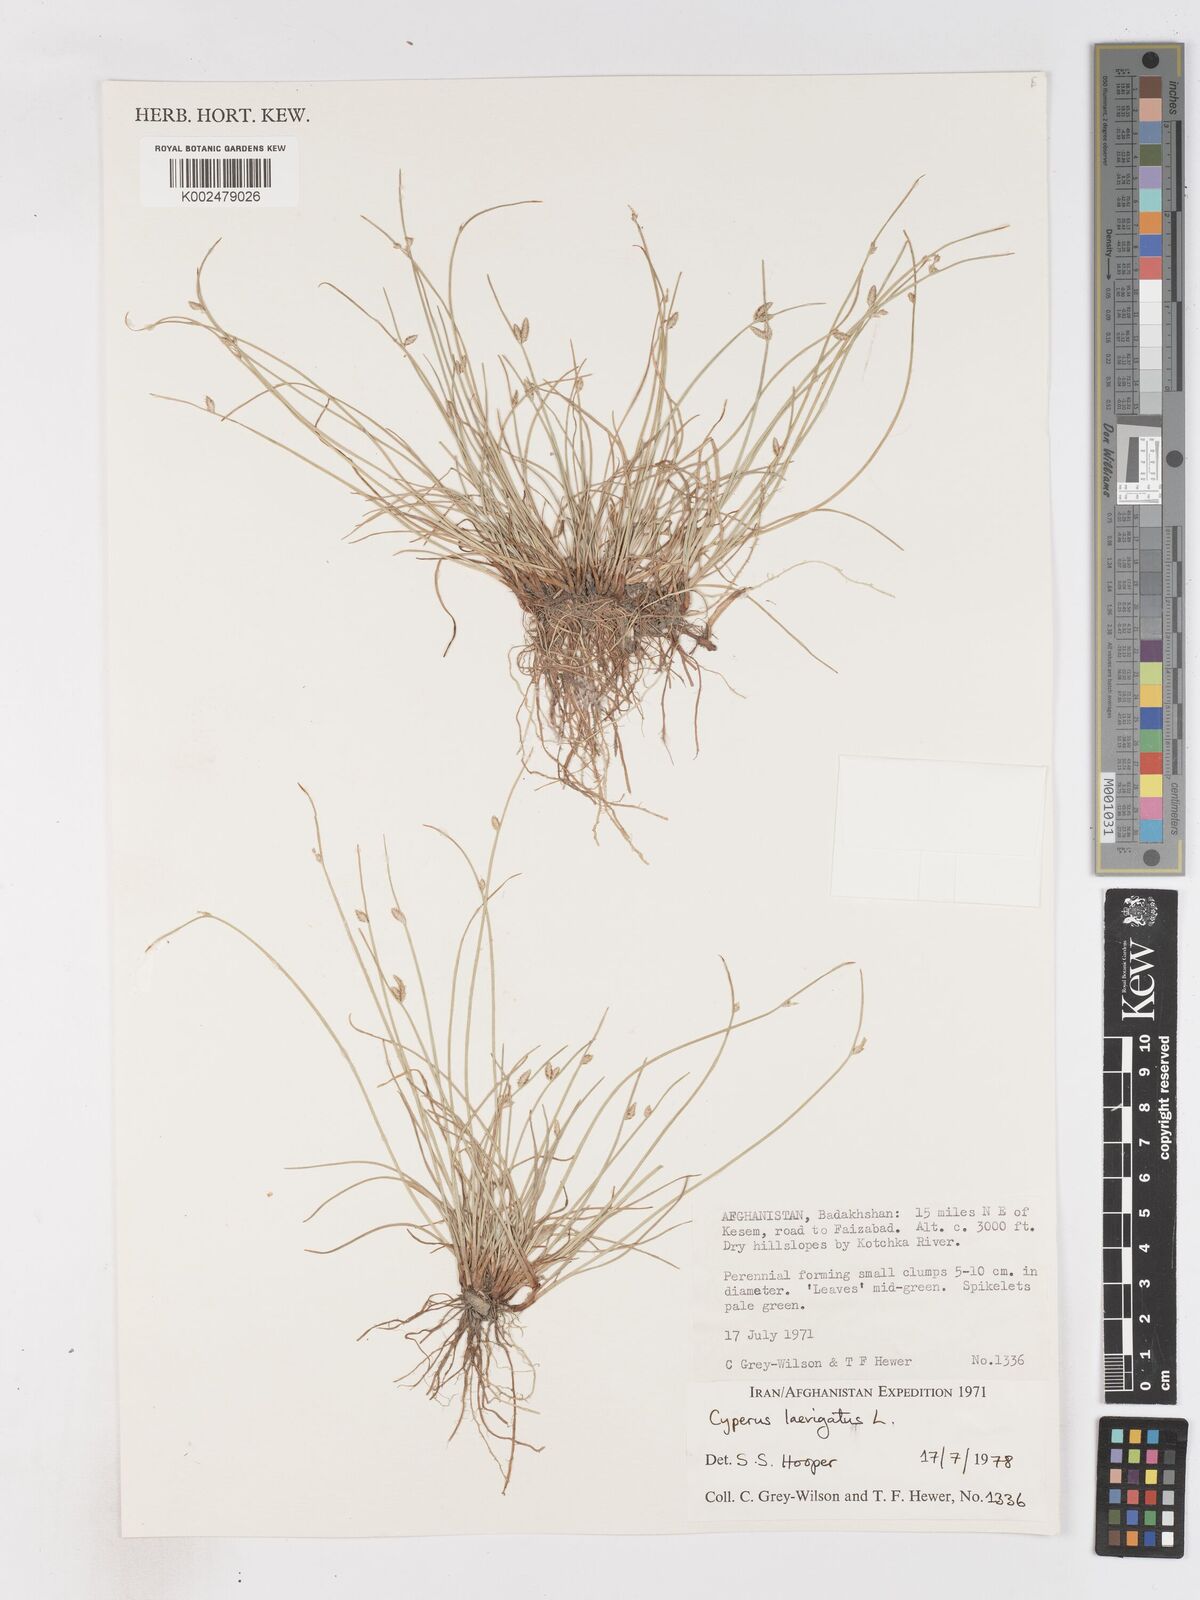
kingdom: Plantae
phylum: Tracheophyta
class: Liliopsida
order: Poales
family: Cyperaceae
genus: Cyperus
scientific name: Cyperus laevigatus
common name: Smooth flat sedge
